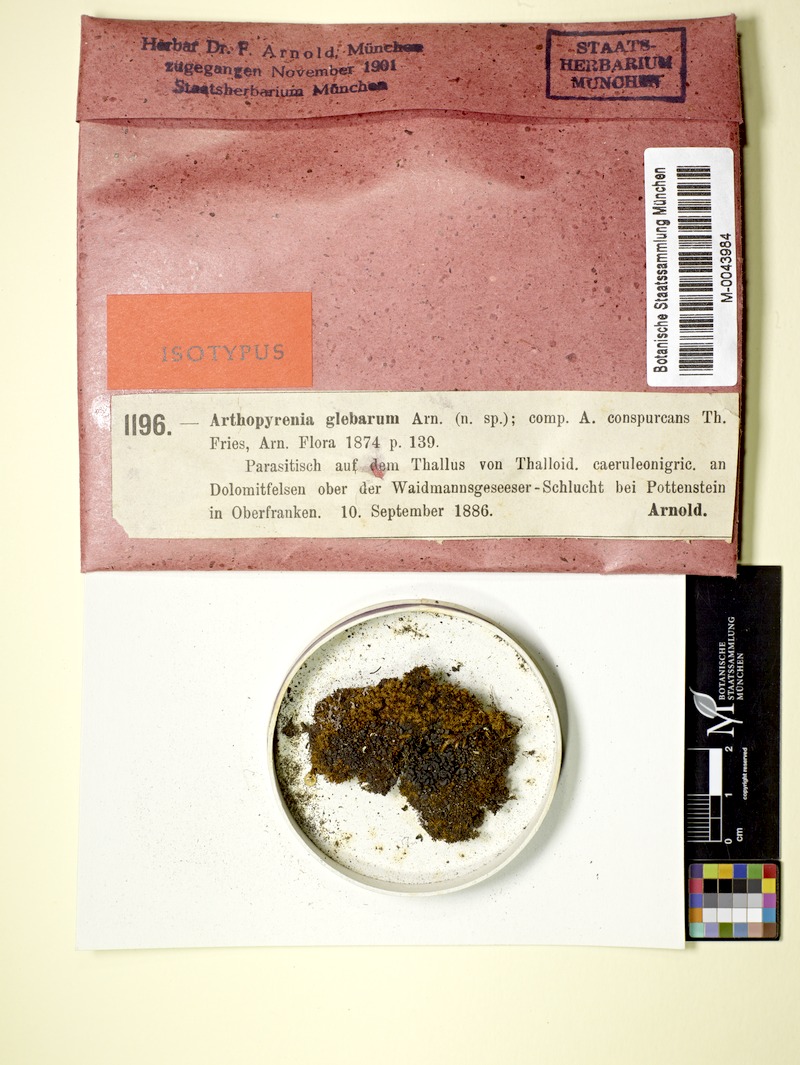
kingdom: Fungi
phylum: Ascomycota
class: Lecanoromycetes
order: Lecanorales
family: Ramalinaceae
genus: Thalloidima
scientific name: Thalloidima sedifolium
